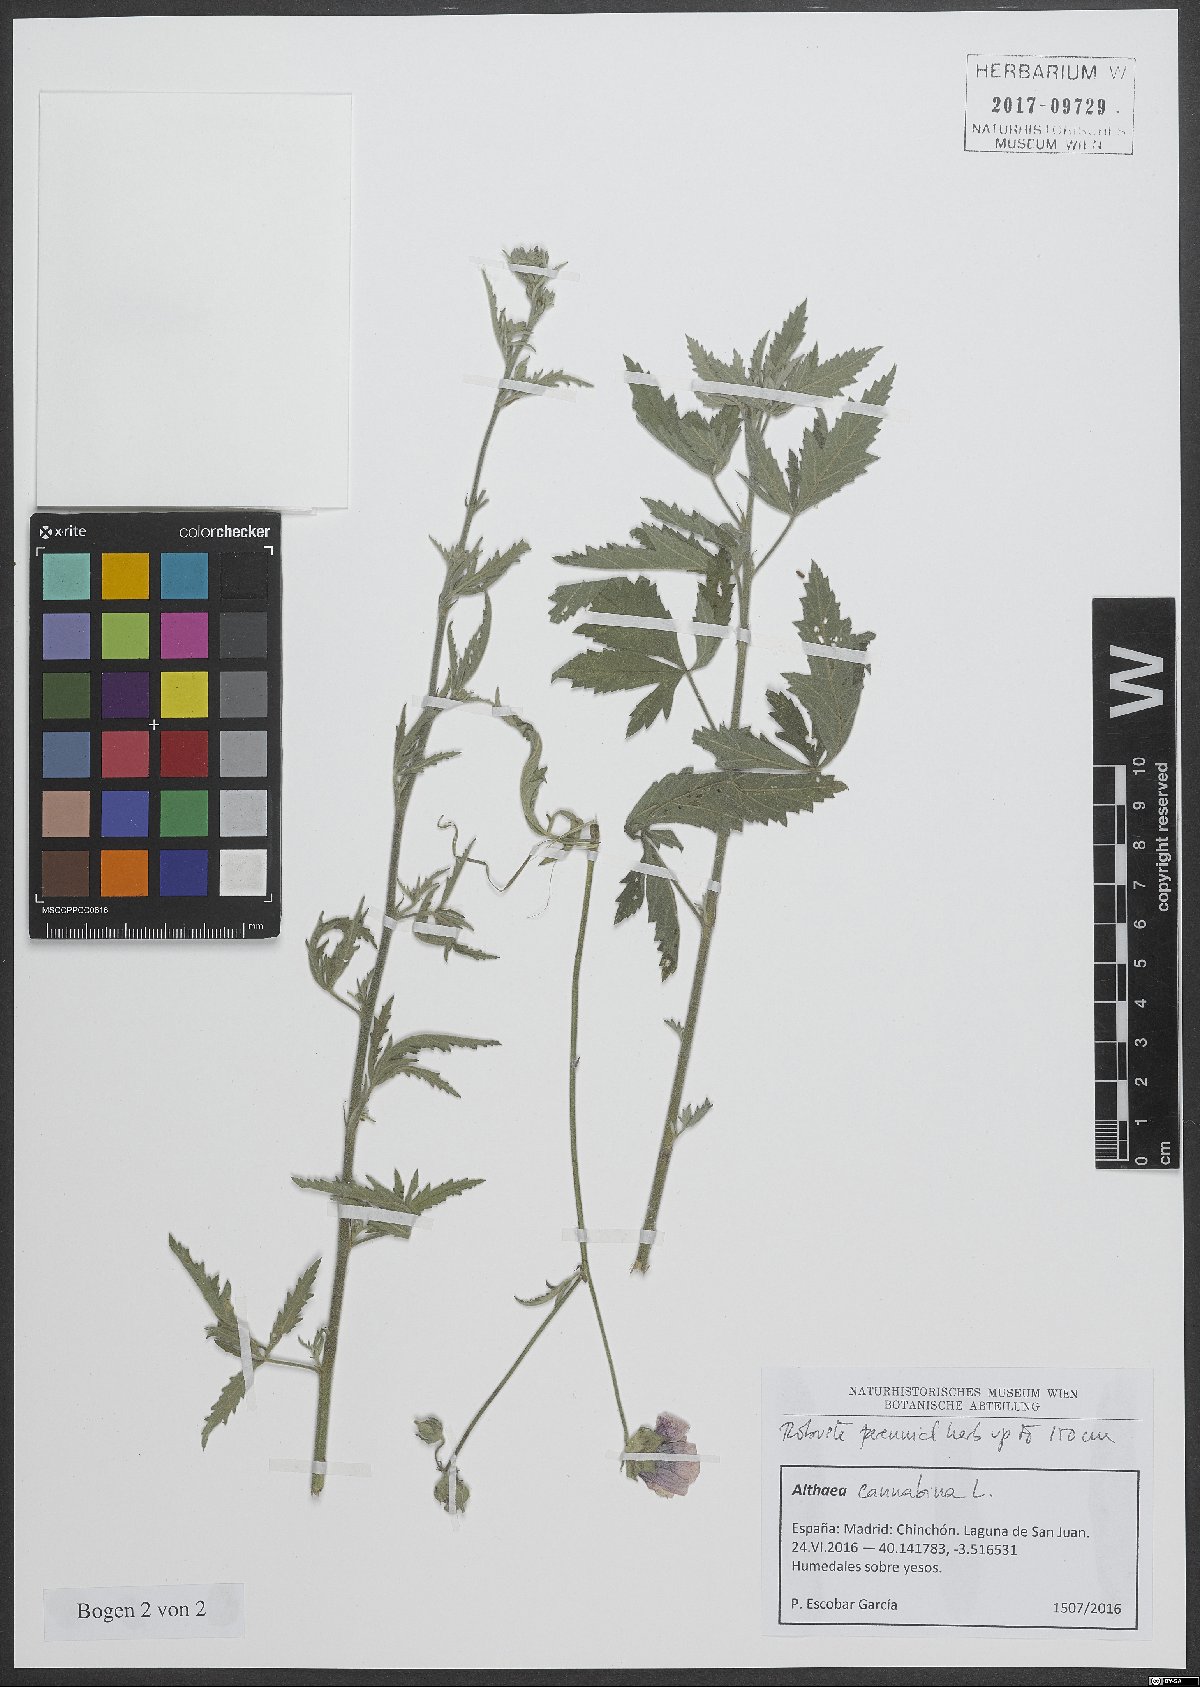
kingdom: Plantae
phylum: Tracheophyta
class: Magnoliopsida
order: Malvales
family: Malvaceae
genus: Althaea
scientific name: Althaea cannabina
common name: Palm-leaf marshmallow
